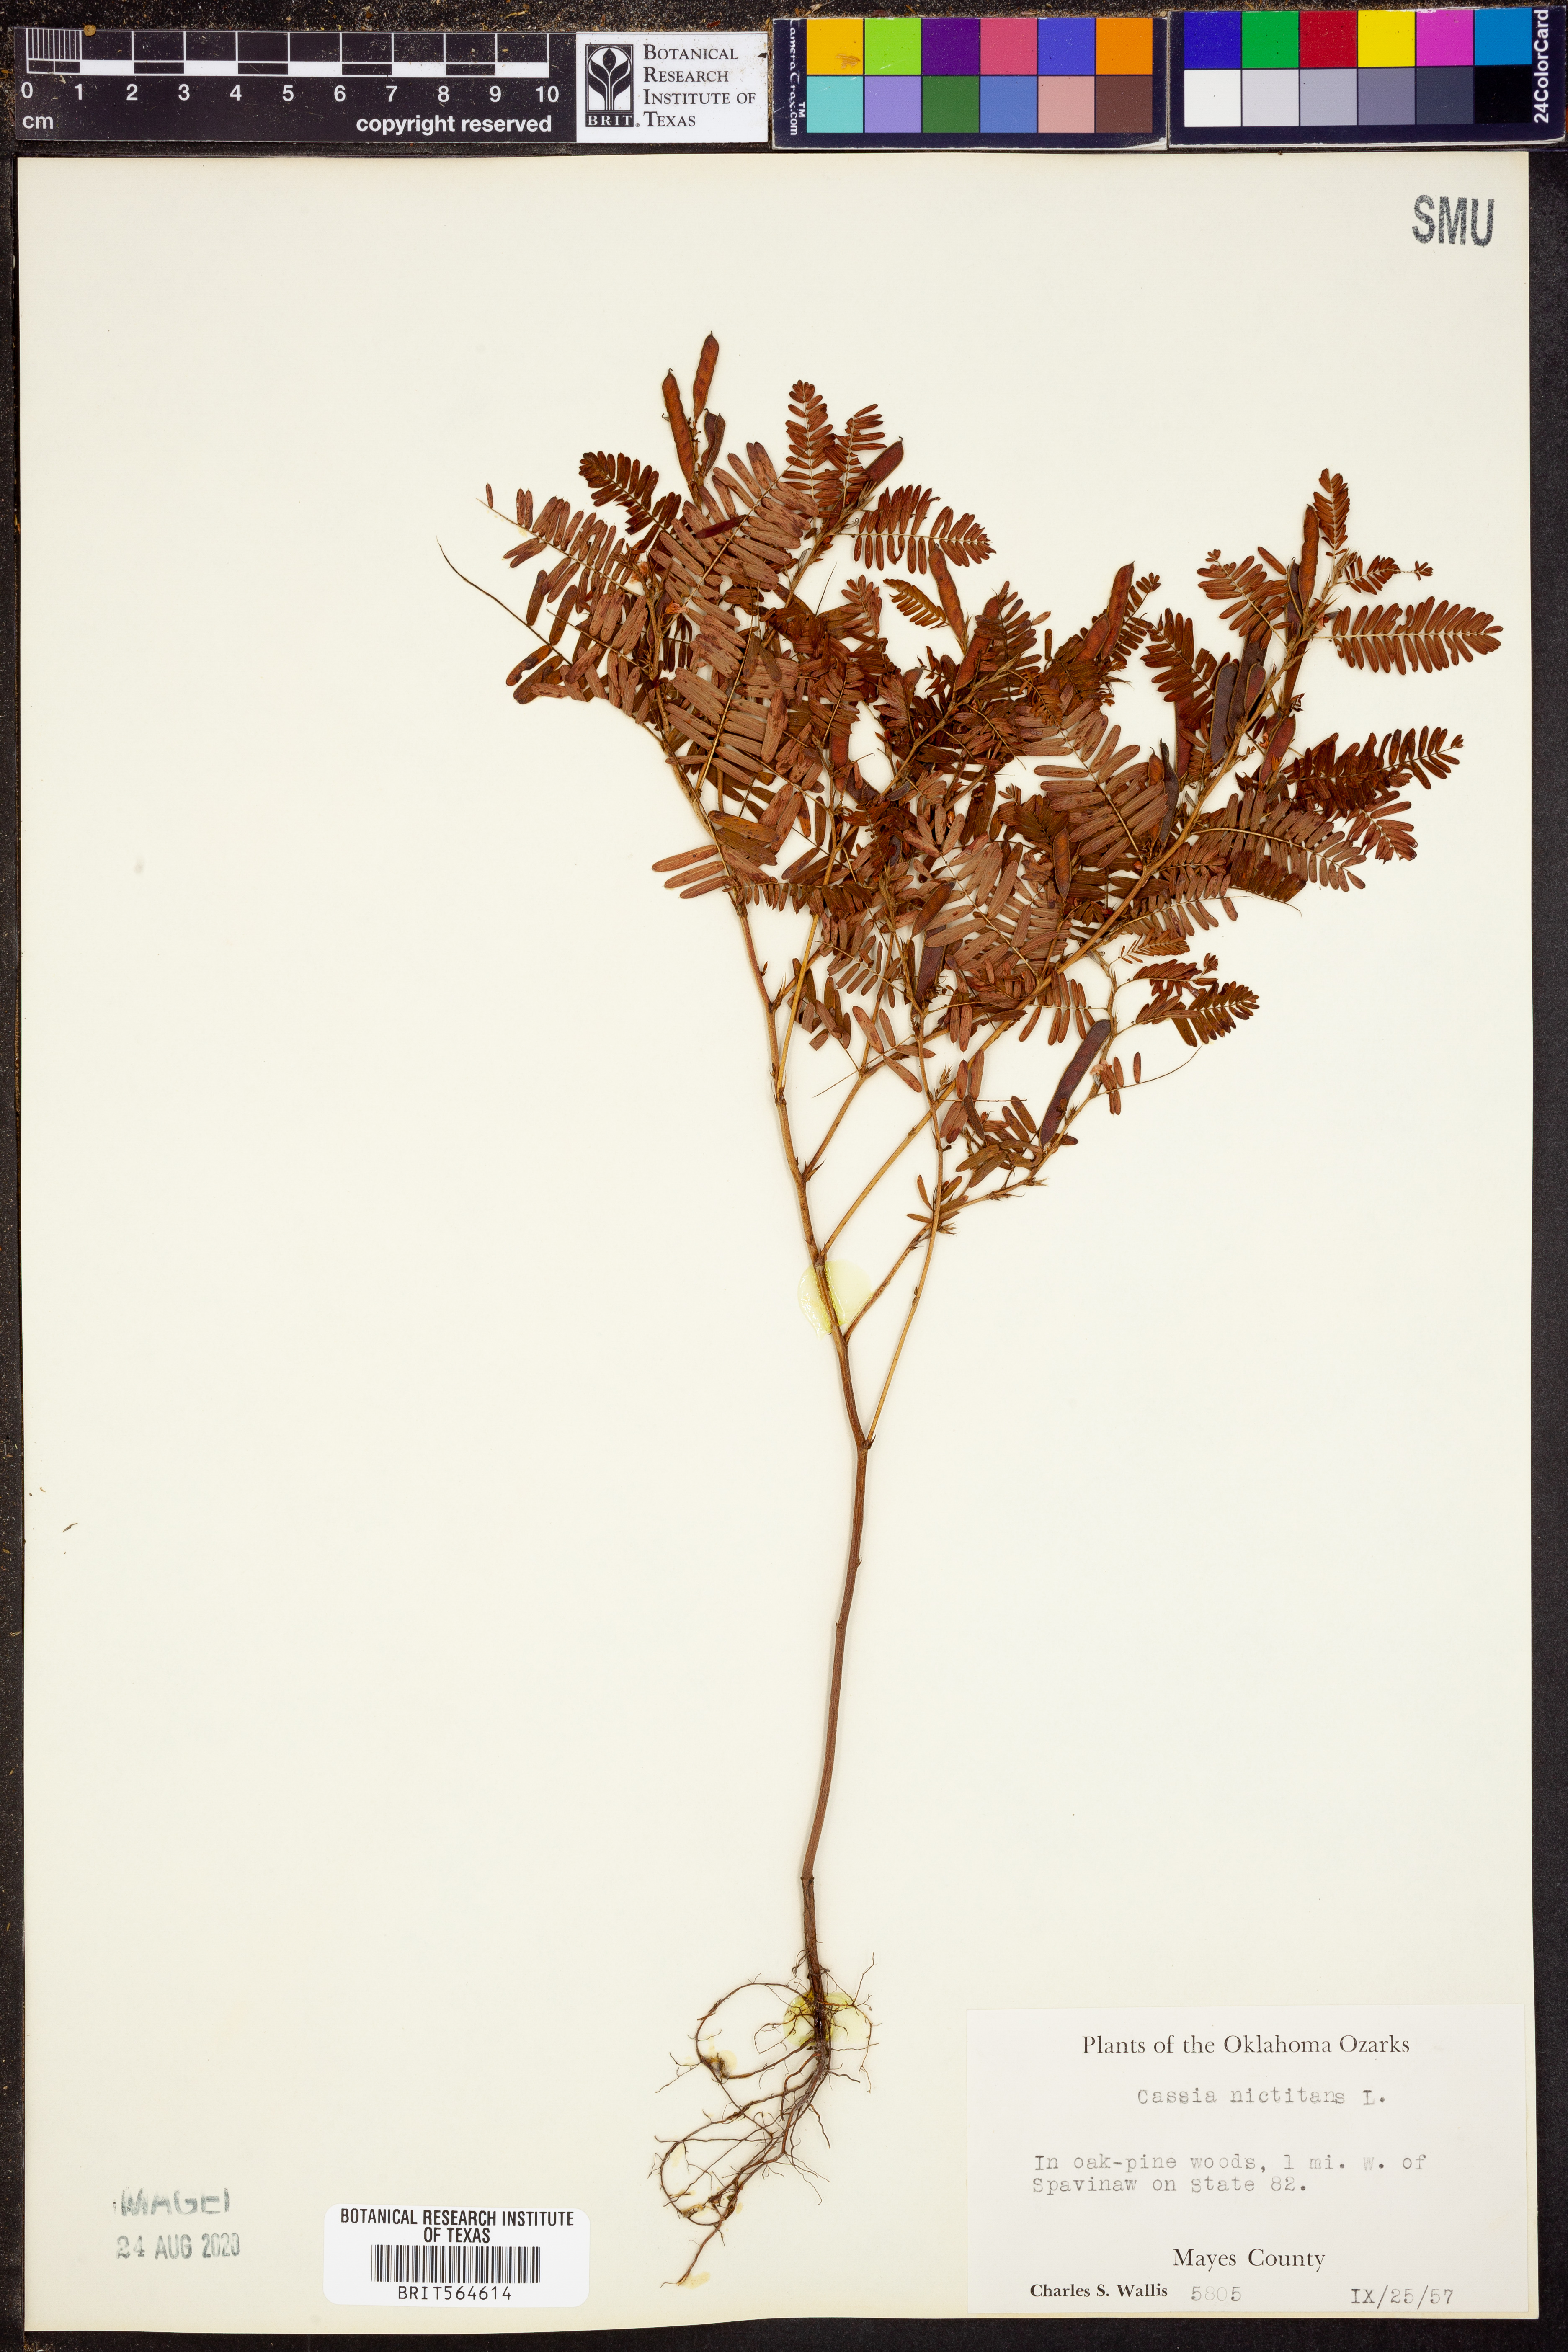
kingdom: Plantae
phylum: Tracheophyta
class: Magnoliopsida
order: Fabales
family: Fabaceae
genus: Chamaecrista
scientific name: Chamaecrista nictitans
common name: Sensitive cassia
